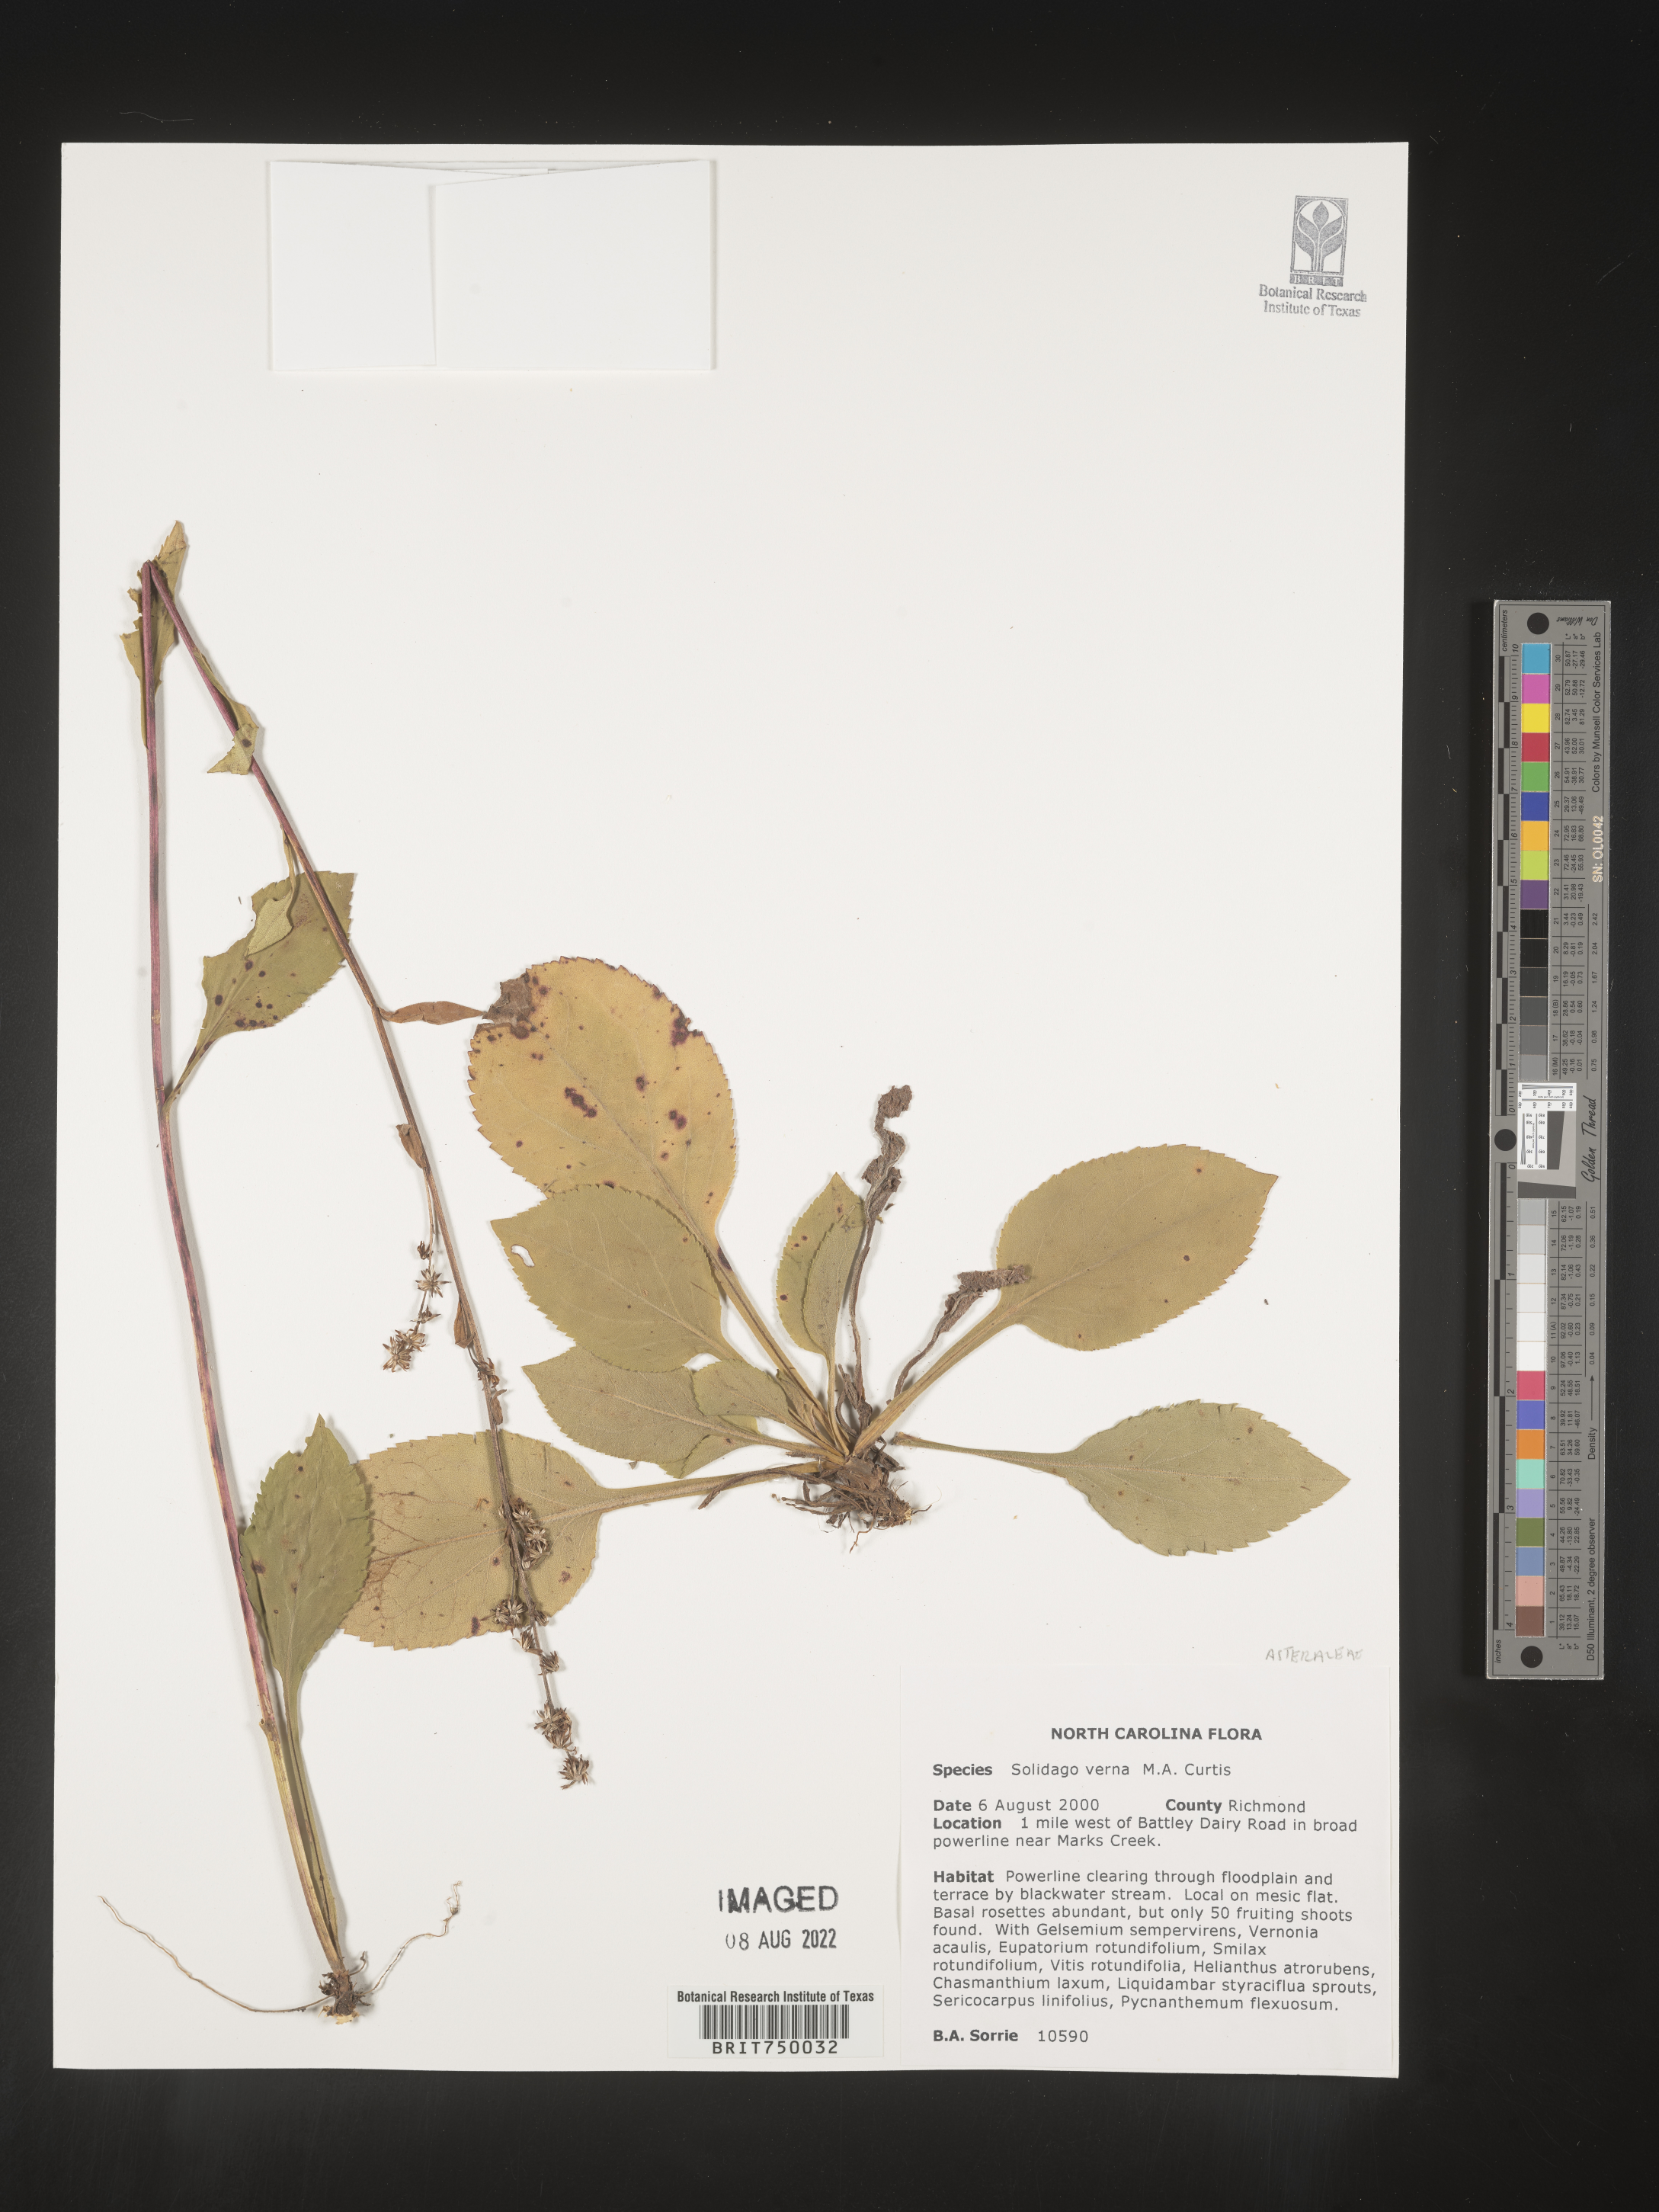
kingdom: Plantae
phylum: Tracheophyta
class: Magnoliopsida
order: Asterales
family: Asteraceae
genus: Solidago
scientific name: Solidago verna
